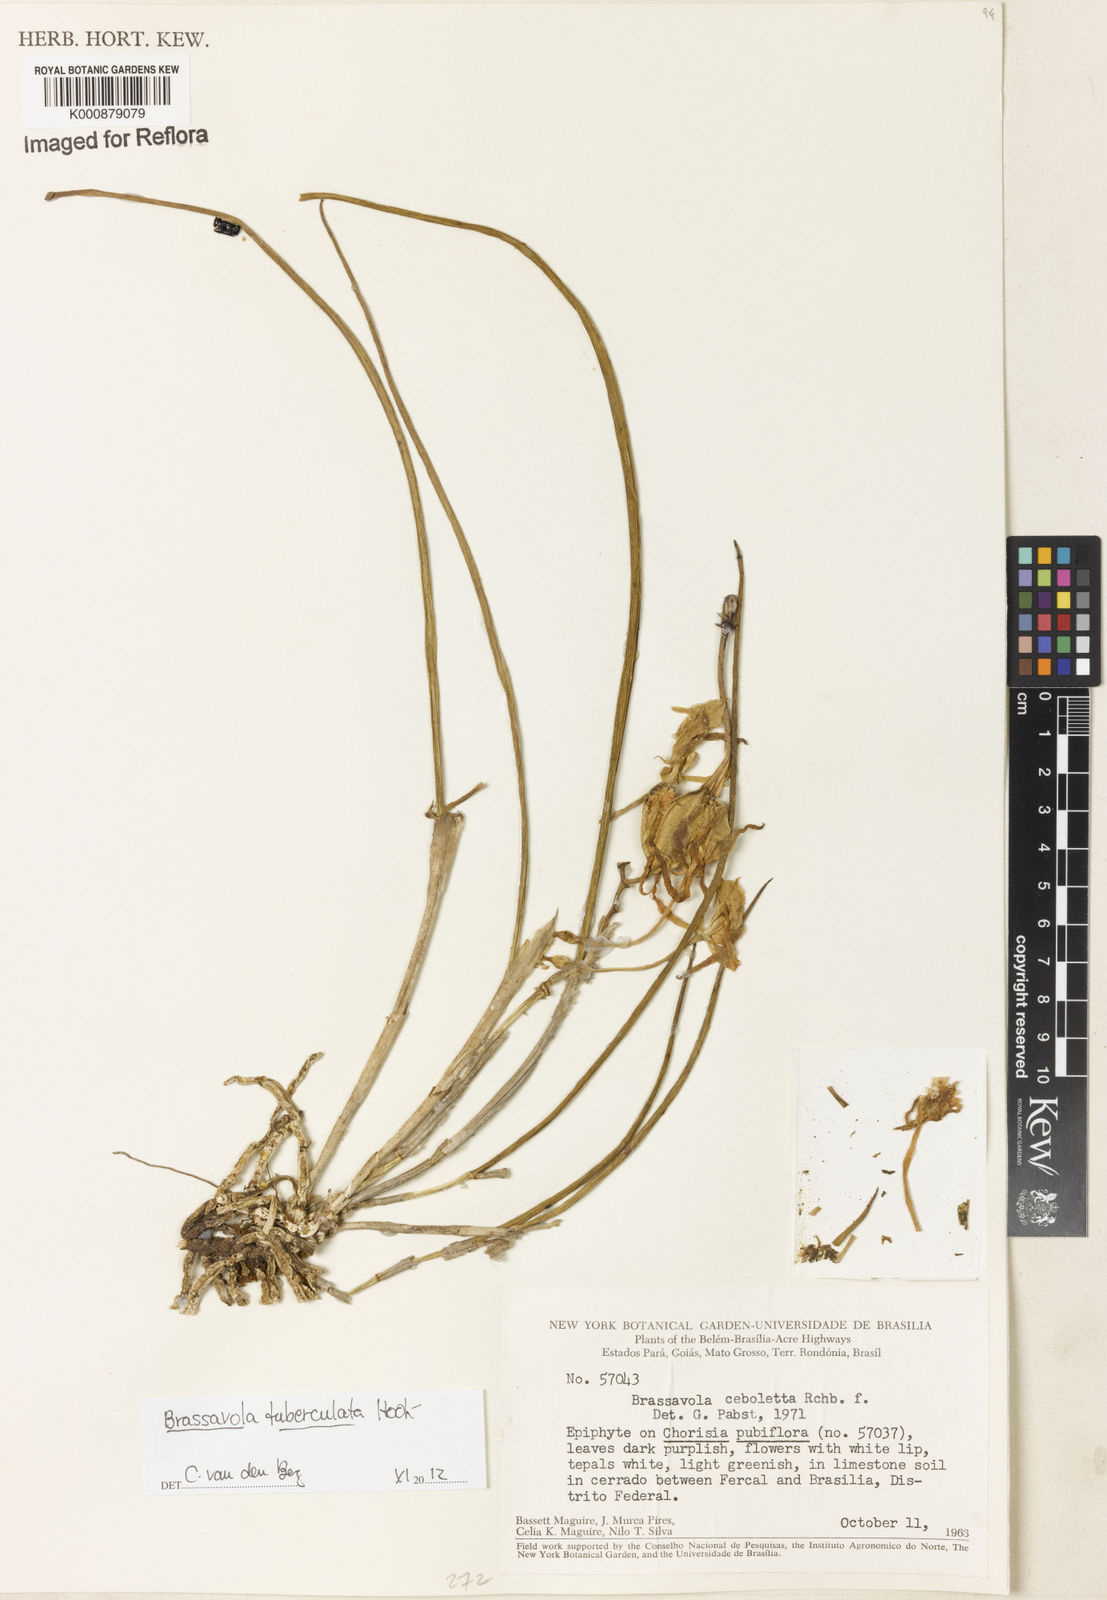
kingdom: Plantae
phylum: Tracheophyta
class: Liliopsida
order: Asparagales
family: Orchidaceae
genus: Brassavola
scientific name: Brassavola tuberculata
